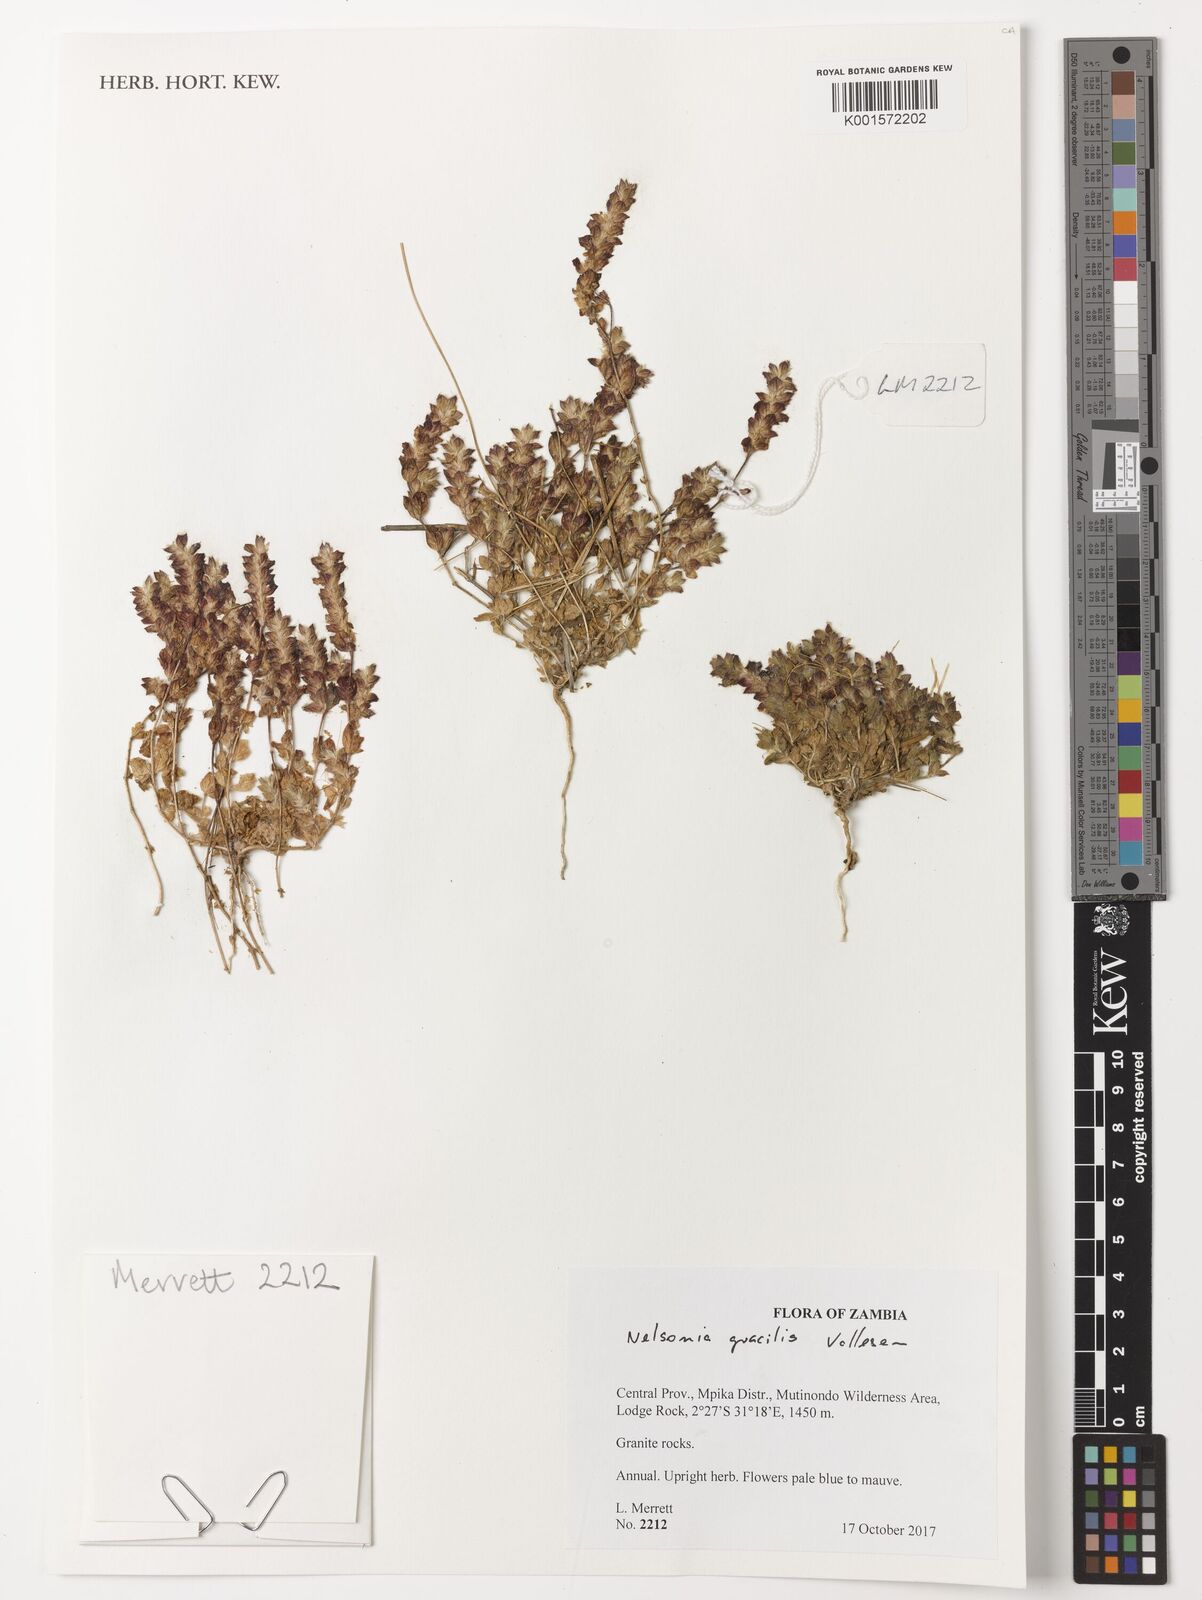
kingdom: Plantae
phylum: Tracheophyta
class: Magnoliopsida
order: Lamiales
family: Acanthaceae
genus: Nelsonia
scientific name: Nelsonia gracilis
